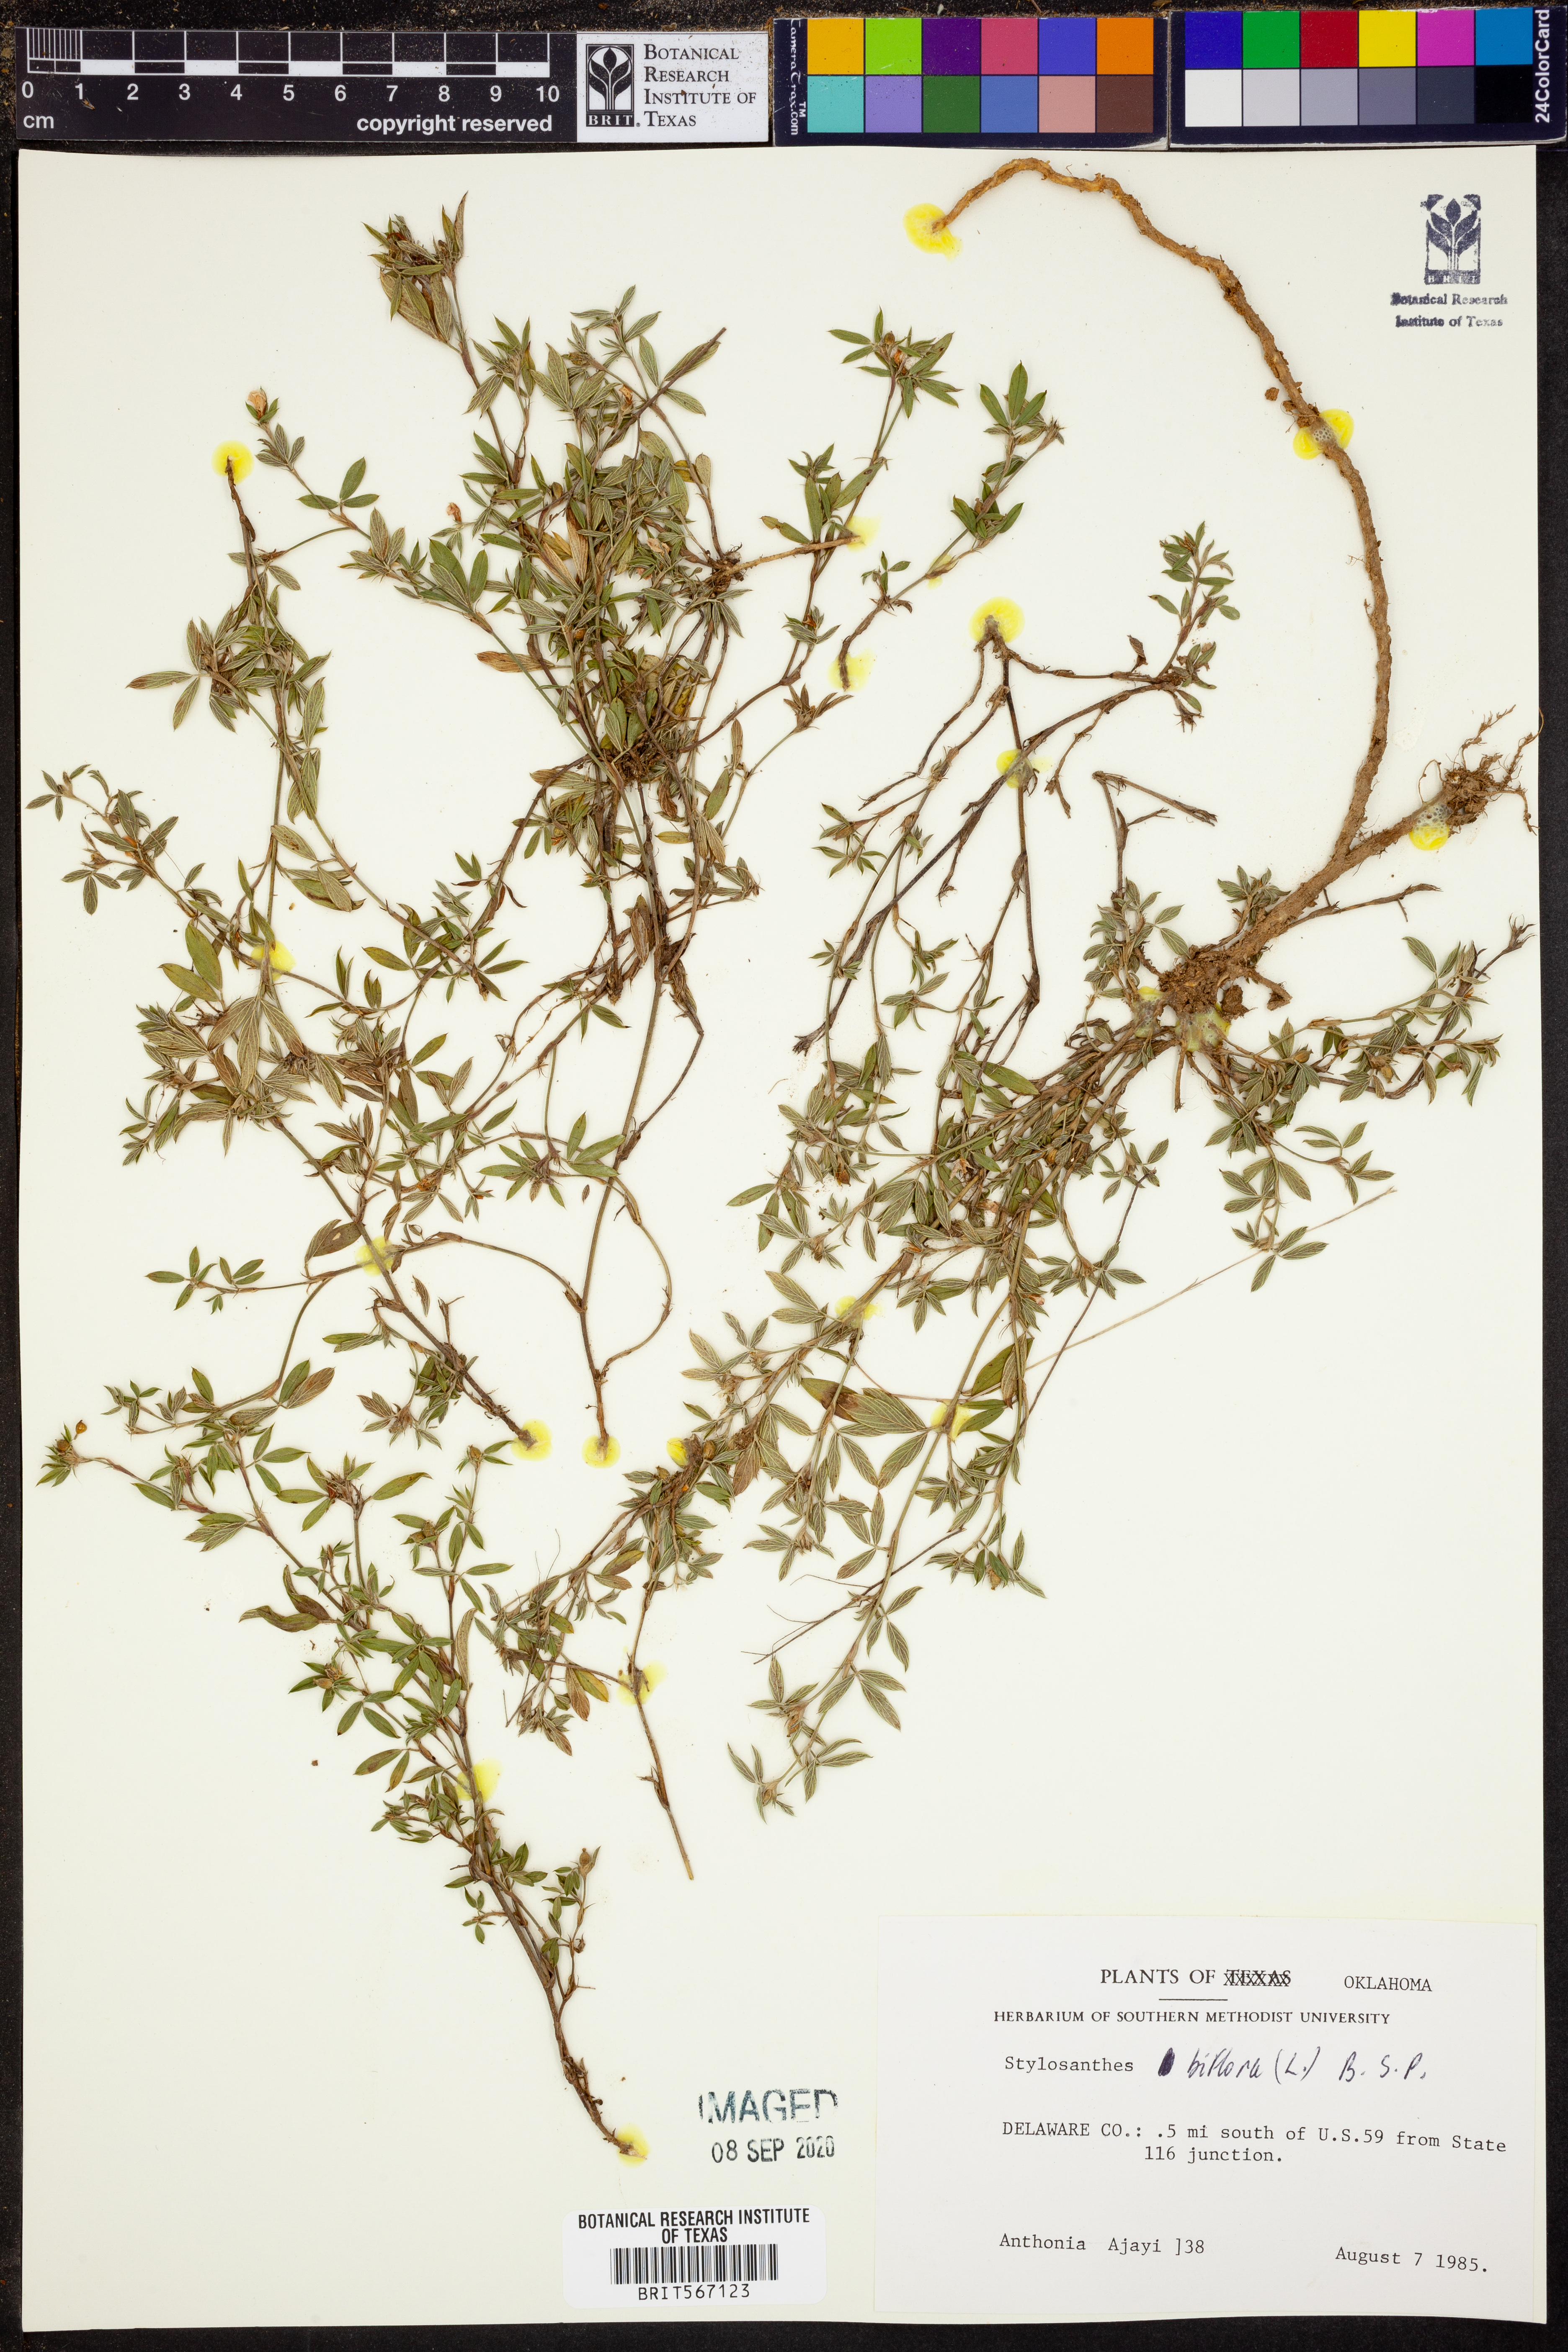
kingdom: Plantae
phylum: Tracheophyta
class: Magnoliopsida
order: Fabales
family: Fabaceae
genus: Stylosanthes
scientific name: Stylosanthes biflora
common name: Two-flower pencil-flower
